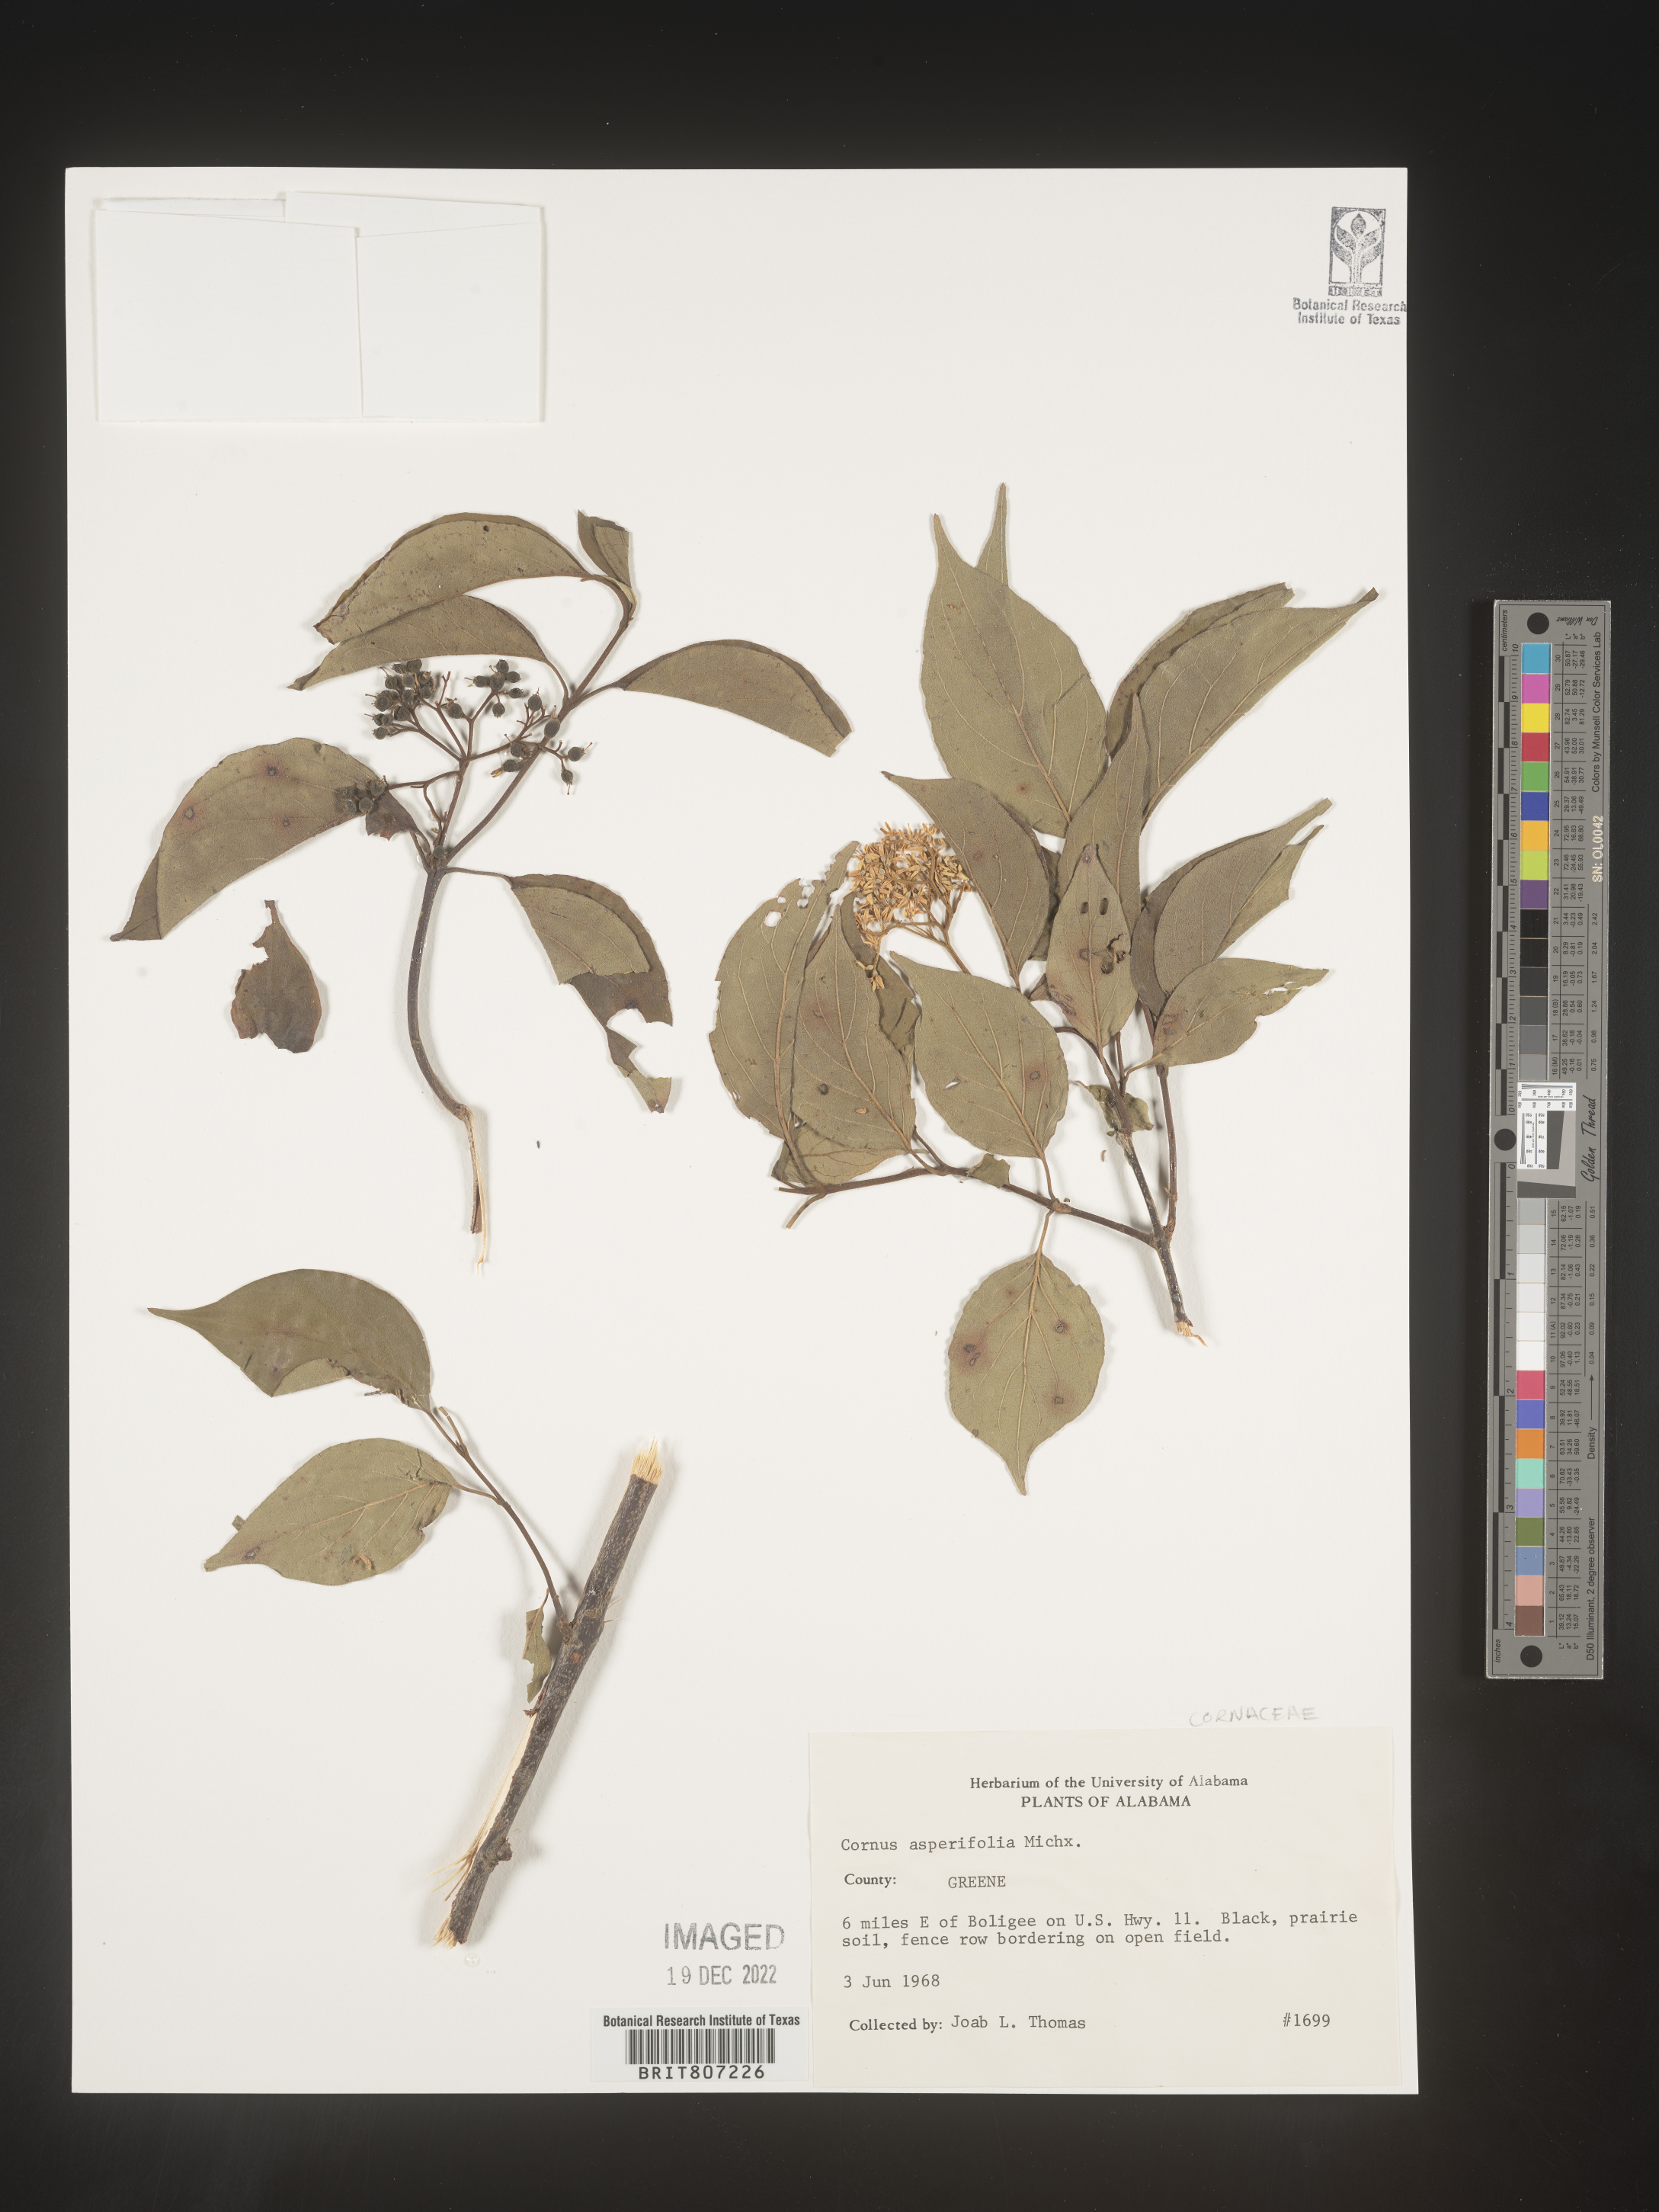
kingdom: Plantae
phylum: Tracheophyta
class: Magnoliopsida
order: Cornales
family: Cornaceae
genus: Cornus
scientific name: Cornus asperifolia
